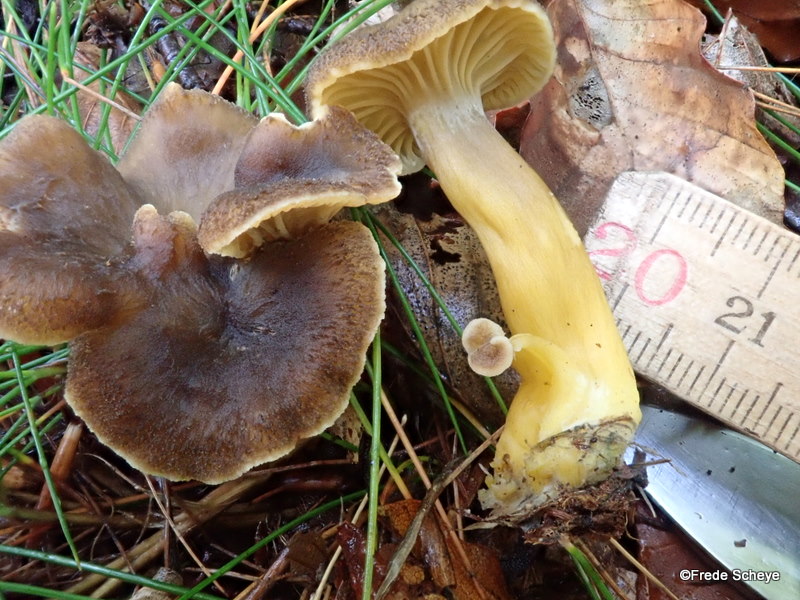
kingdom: Fungi
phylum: Basidiomycota
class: Agaricomycetes
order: Cantharellales
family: Hydnaceae
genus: Craterellus
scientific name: Craterellus tubaeformis
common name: tragt-kantarel
